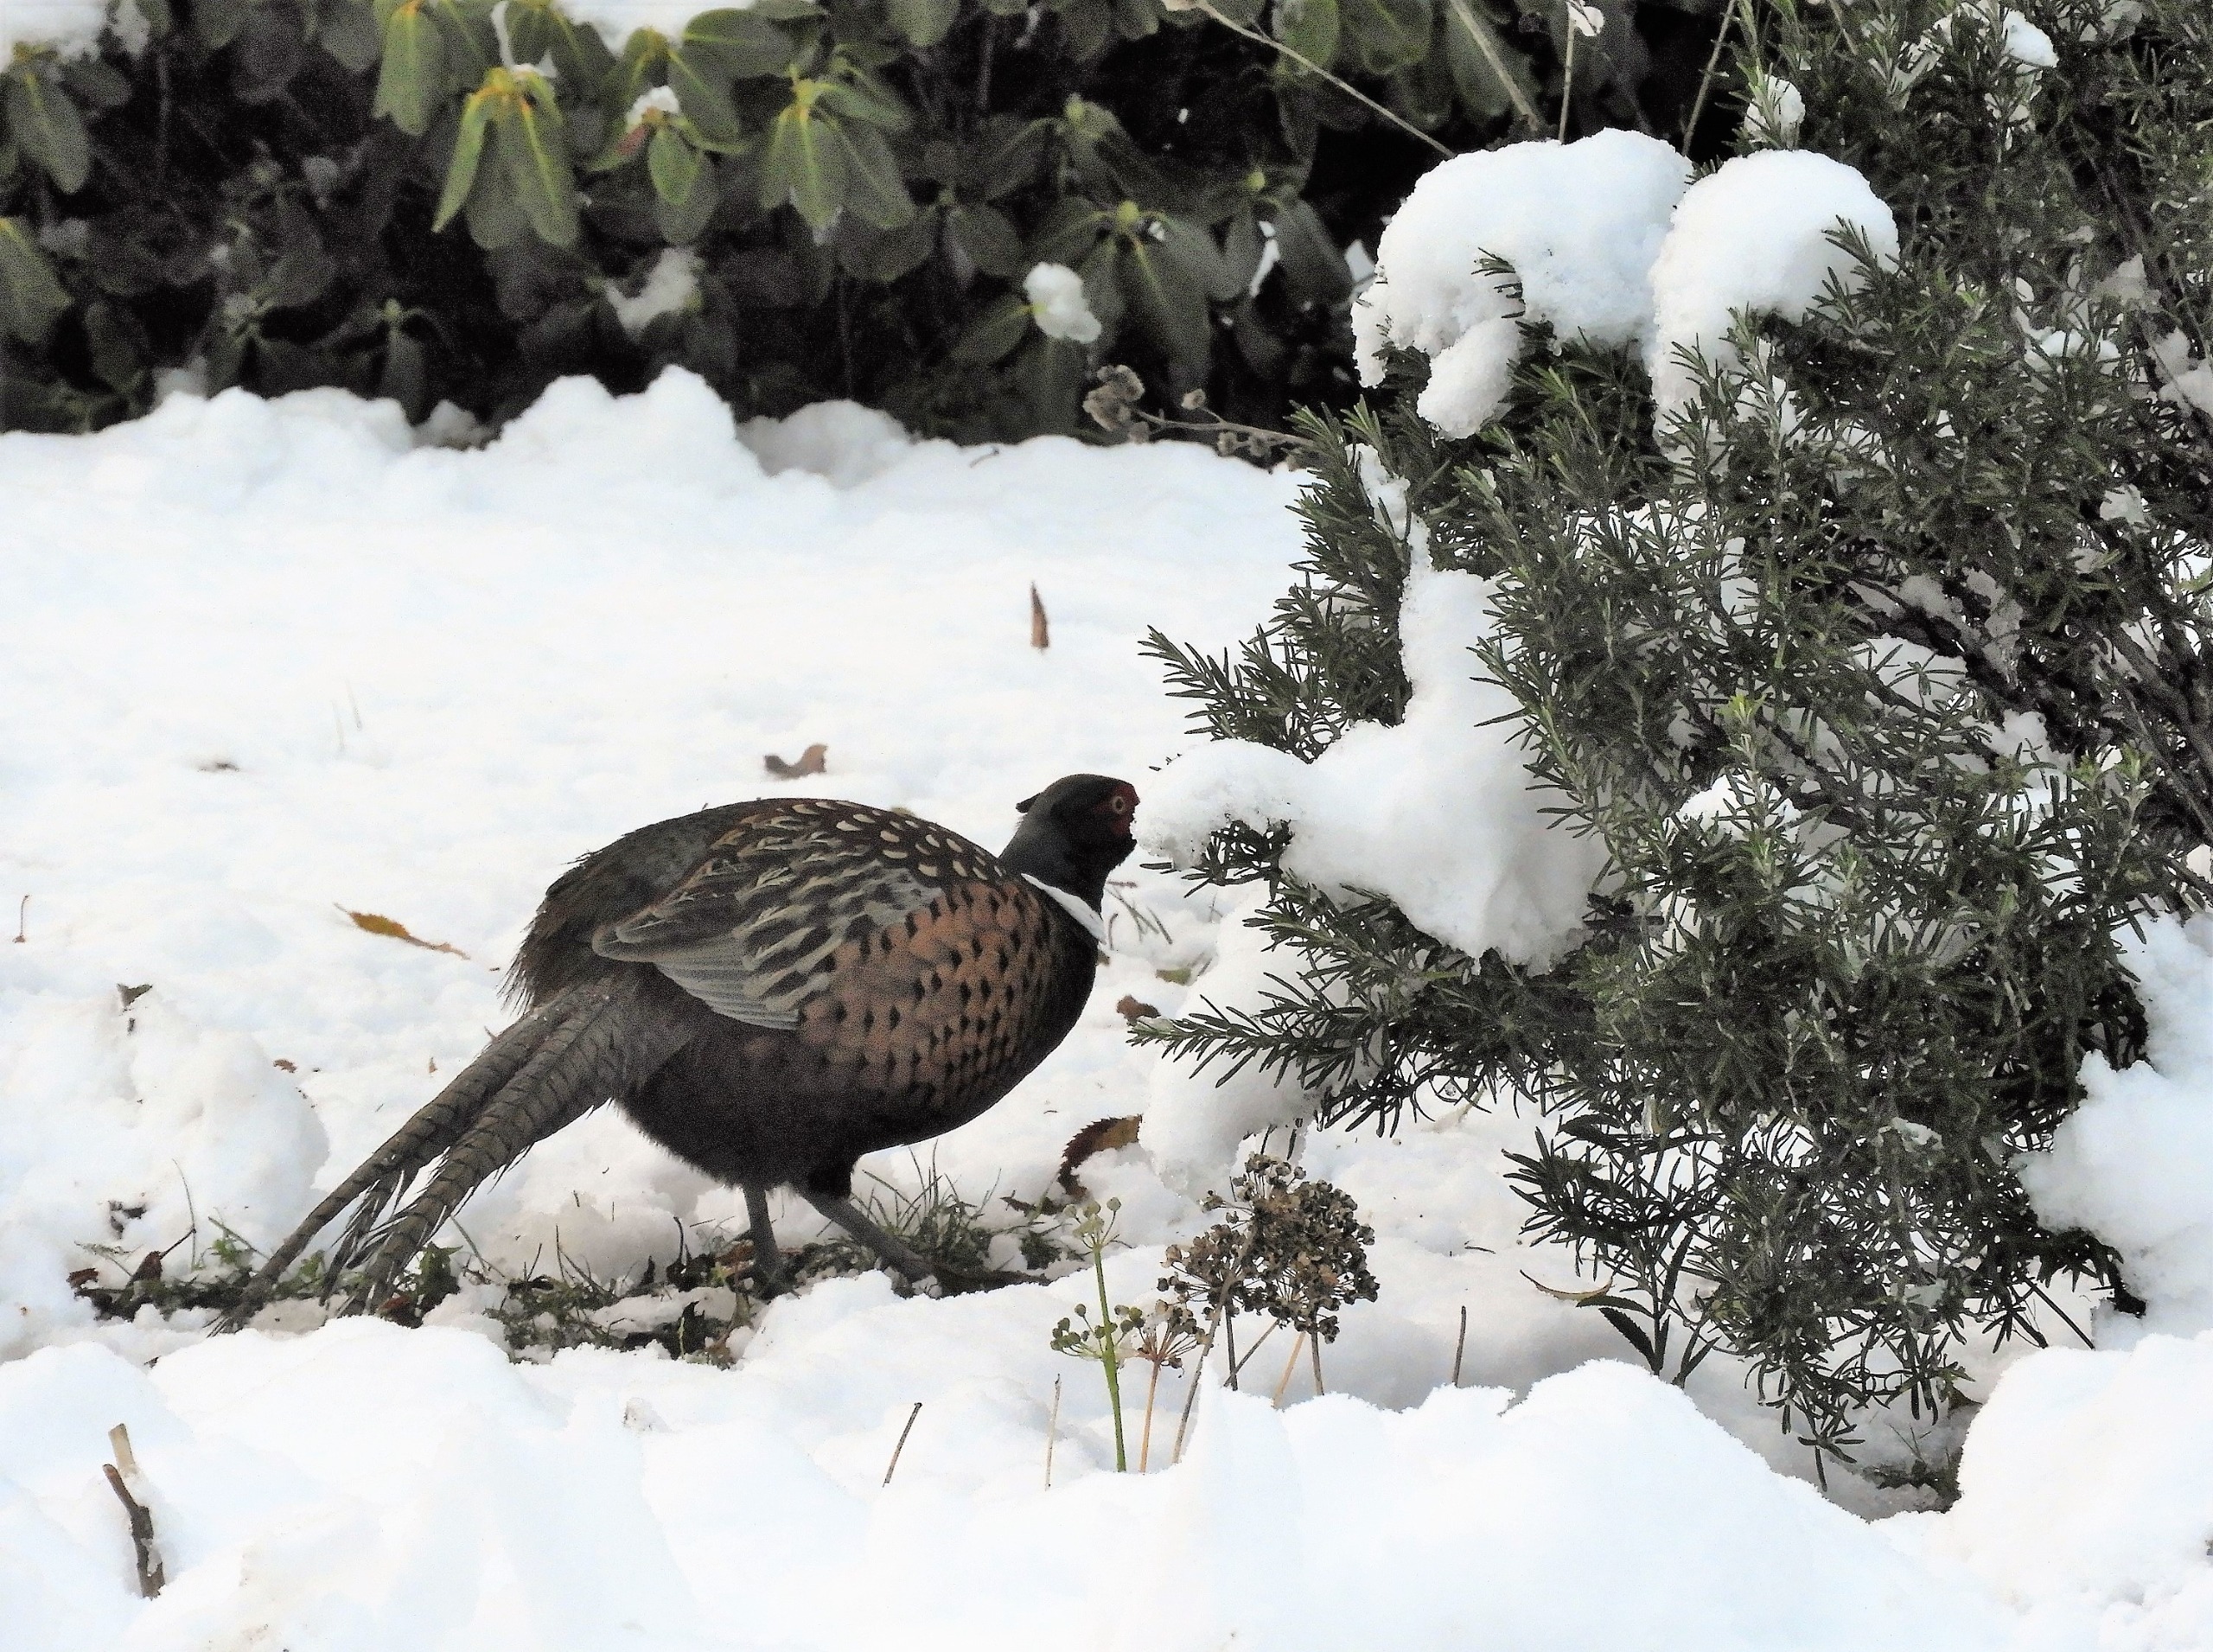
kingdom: Animalia
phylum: Chordata
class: Aves
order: Galliformes
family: Phasianidae
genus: Phasianus
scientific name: Phasianus colchicus
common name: Fasan
